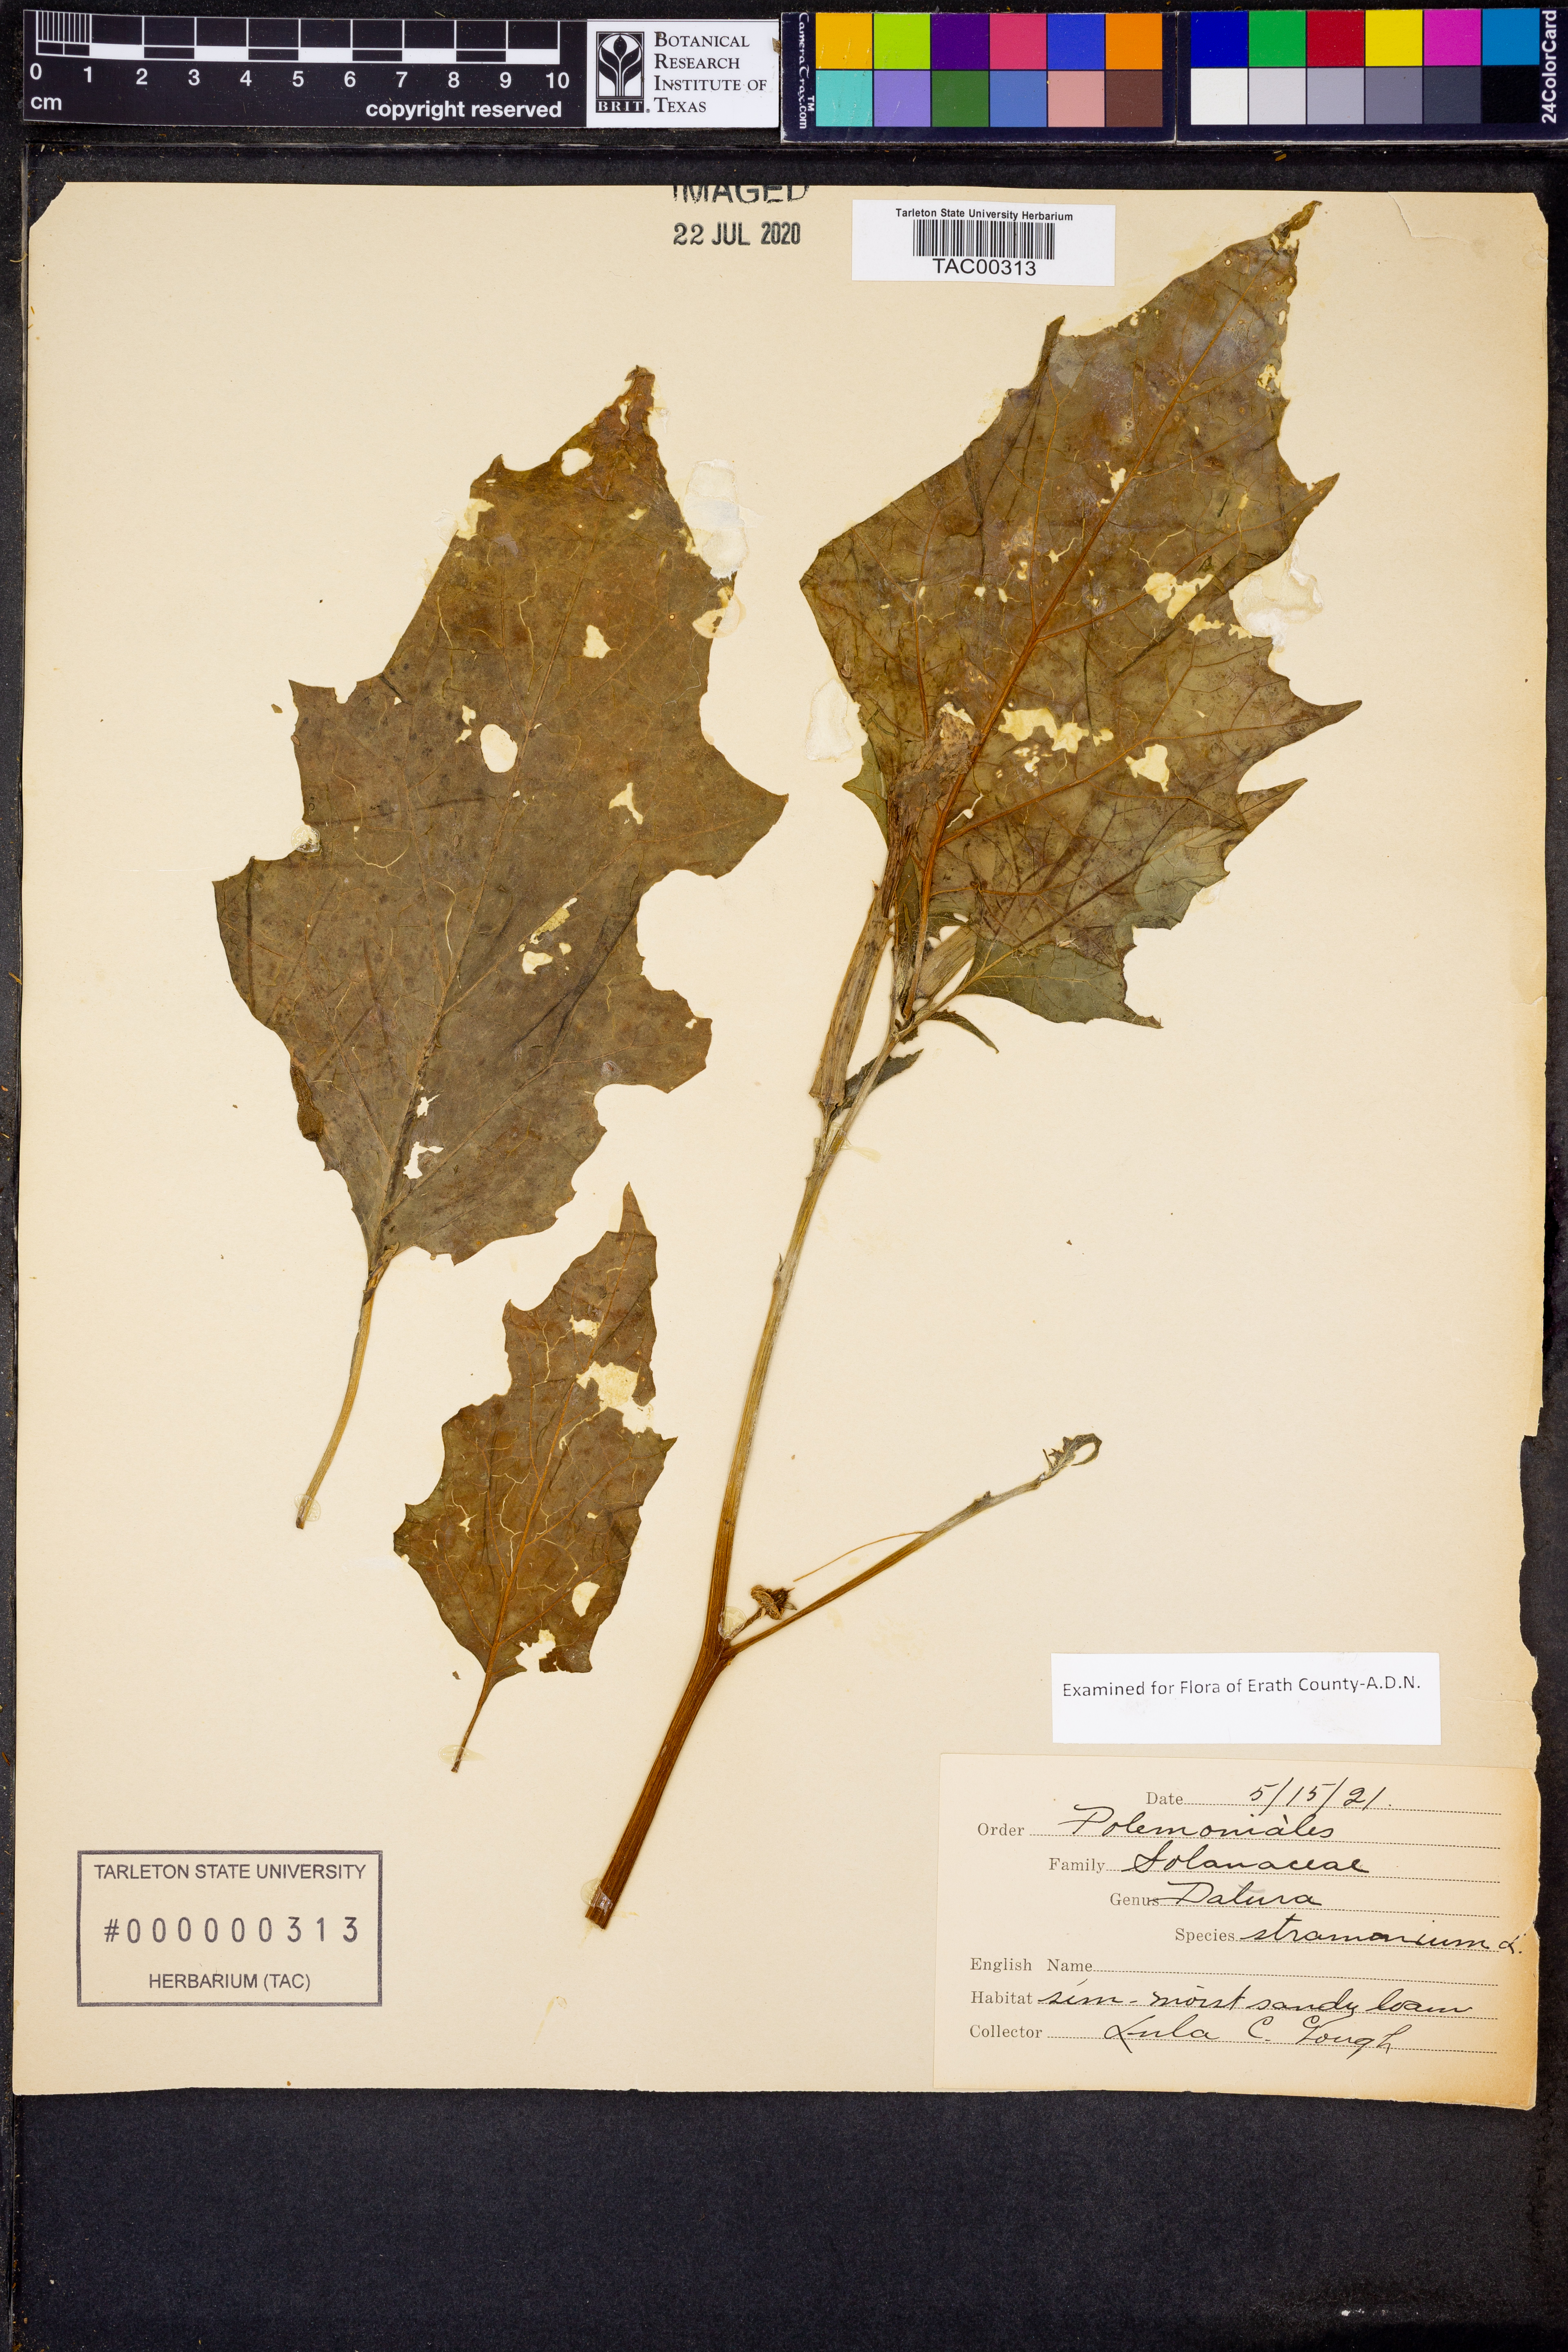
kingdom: Plantae
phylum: Tracheophyta
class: Magnoliopsida
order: Solanales
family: Solanaceae
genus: Datura
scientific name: Datura stramonium
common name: Thorn-apple
